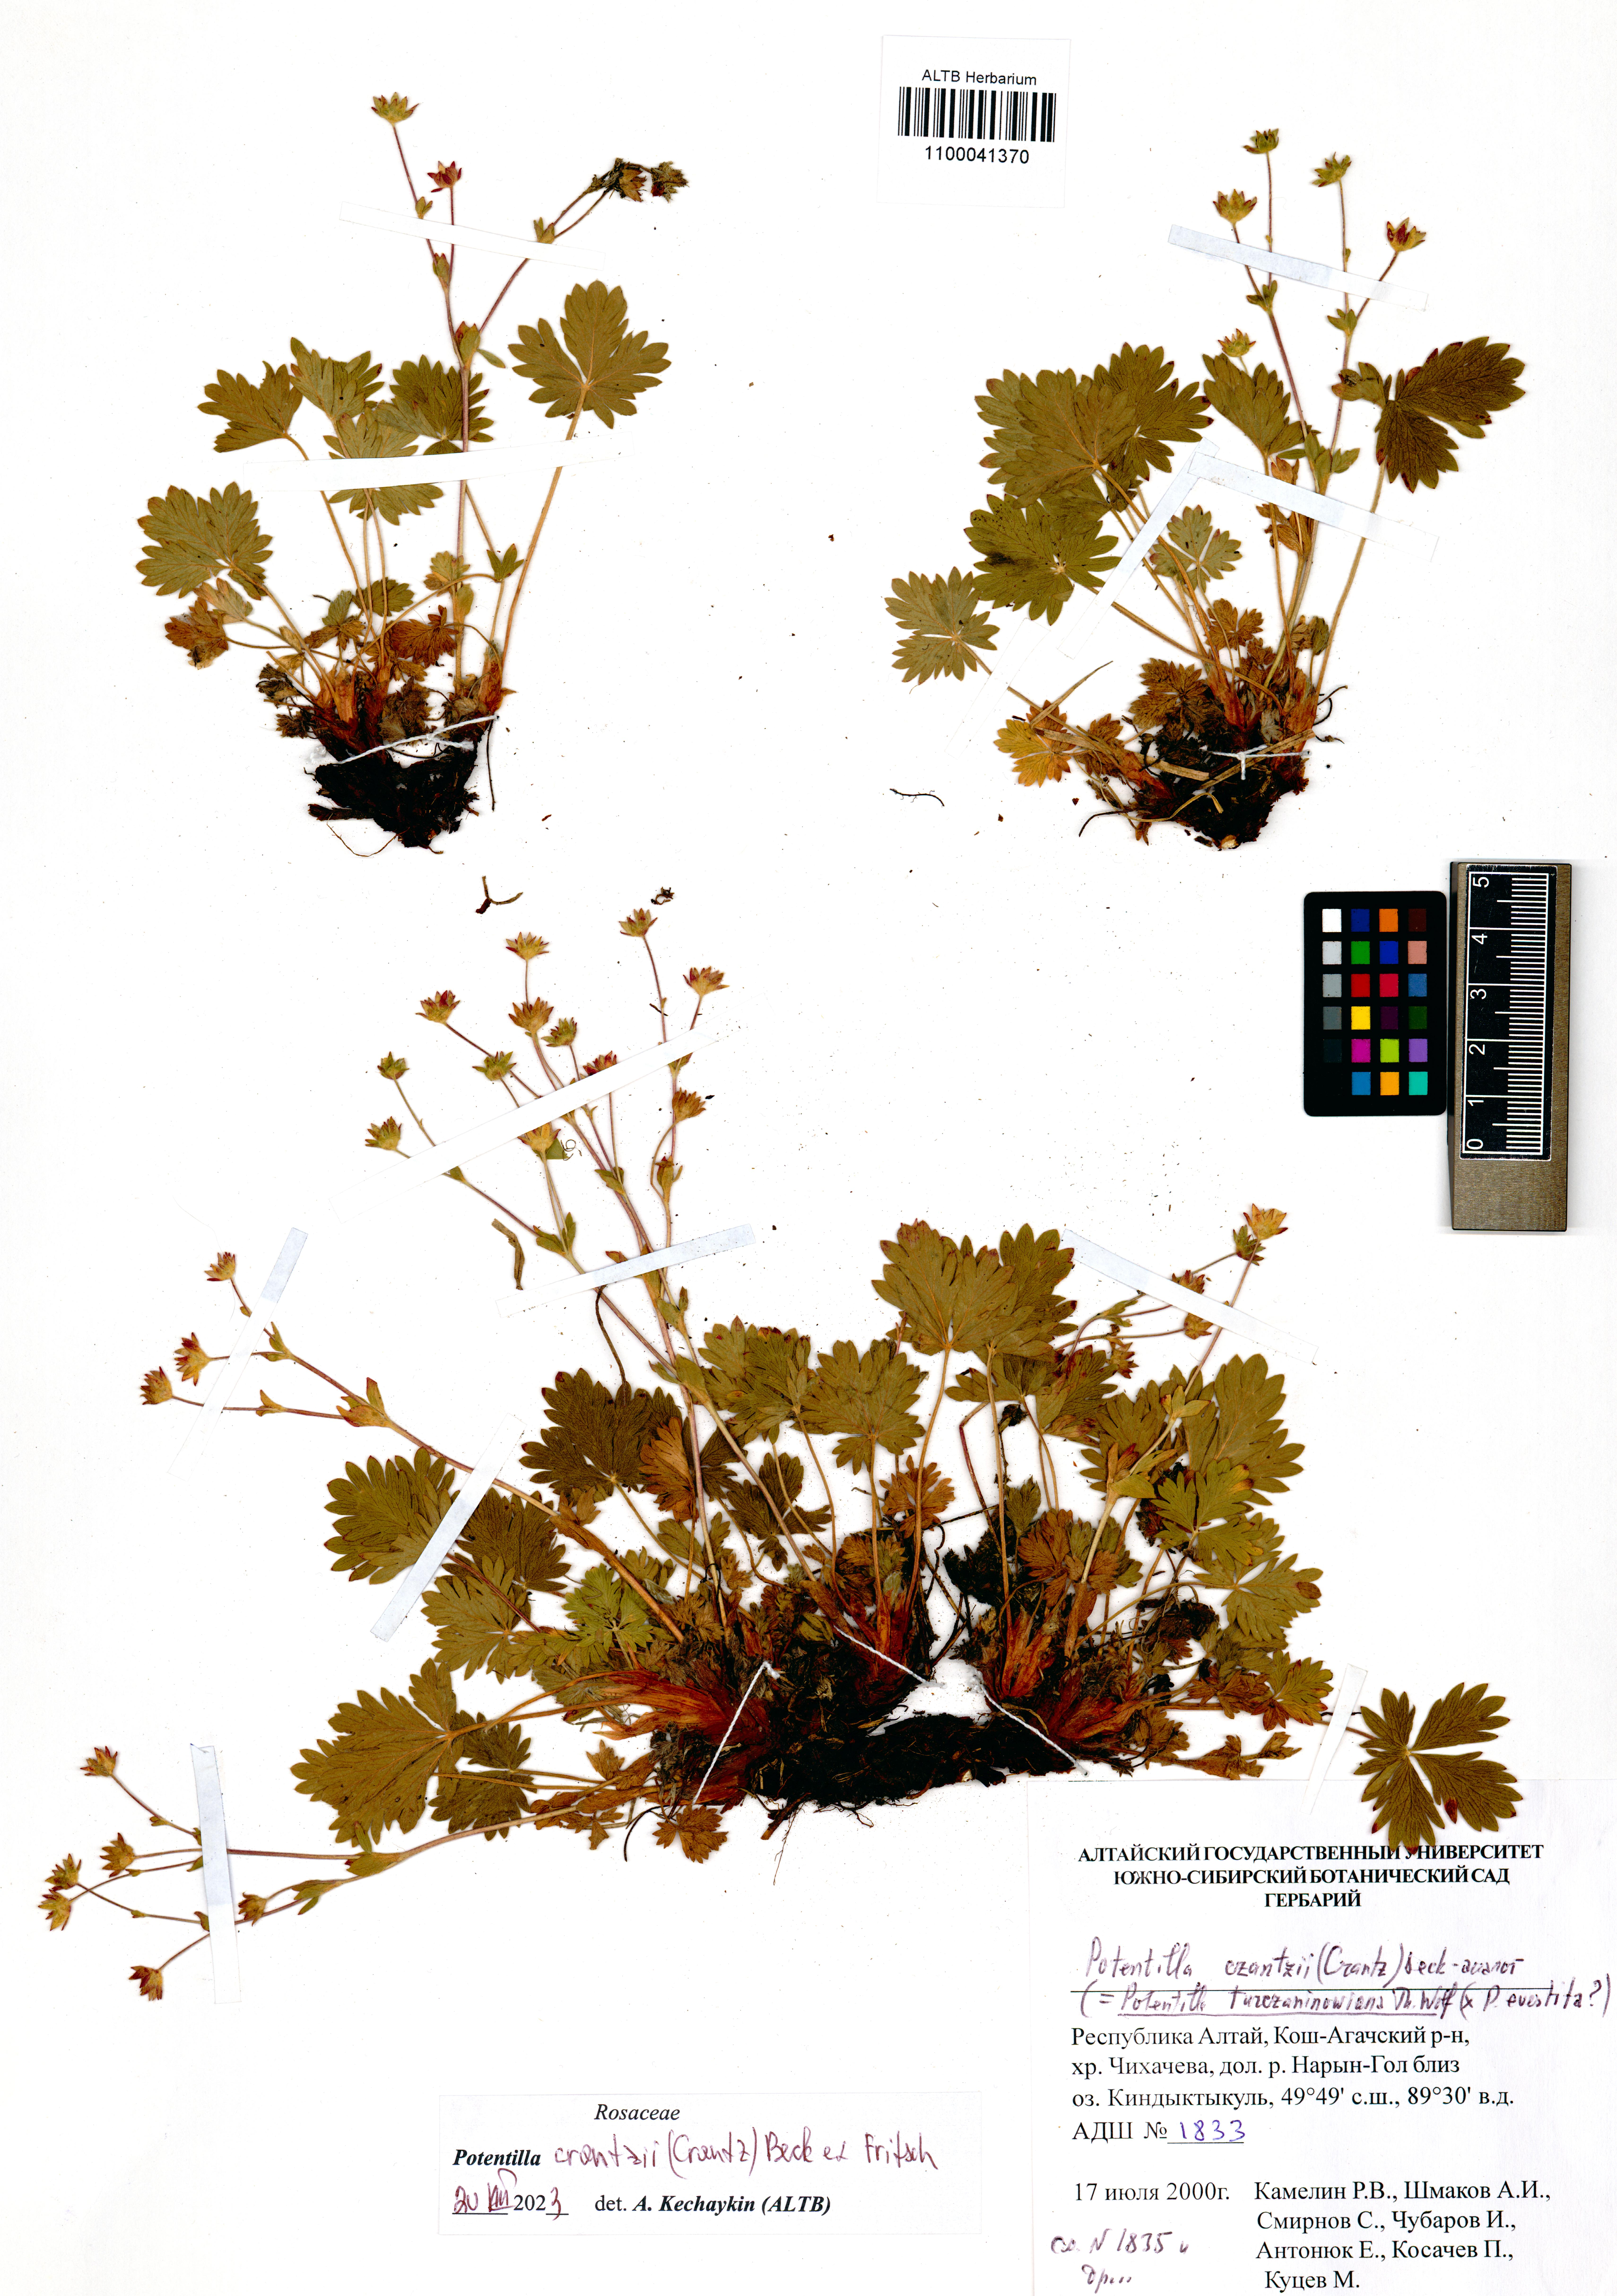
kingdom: Plantae
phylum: Tracheophyta
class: Magnoliopsida
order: Rosales
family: Rosaceae
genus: Potentilla
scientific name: Potentilla crantzii
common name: Alpine cinquefoil
